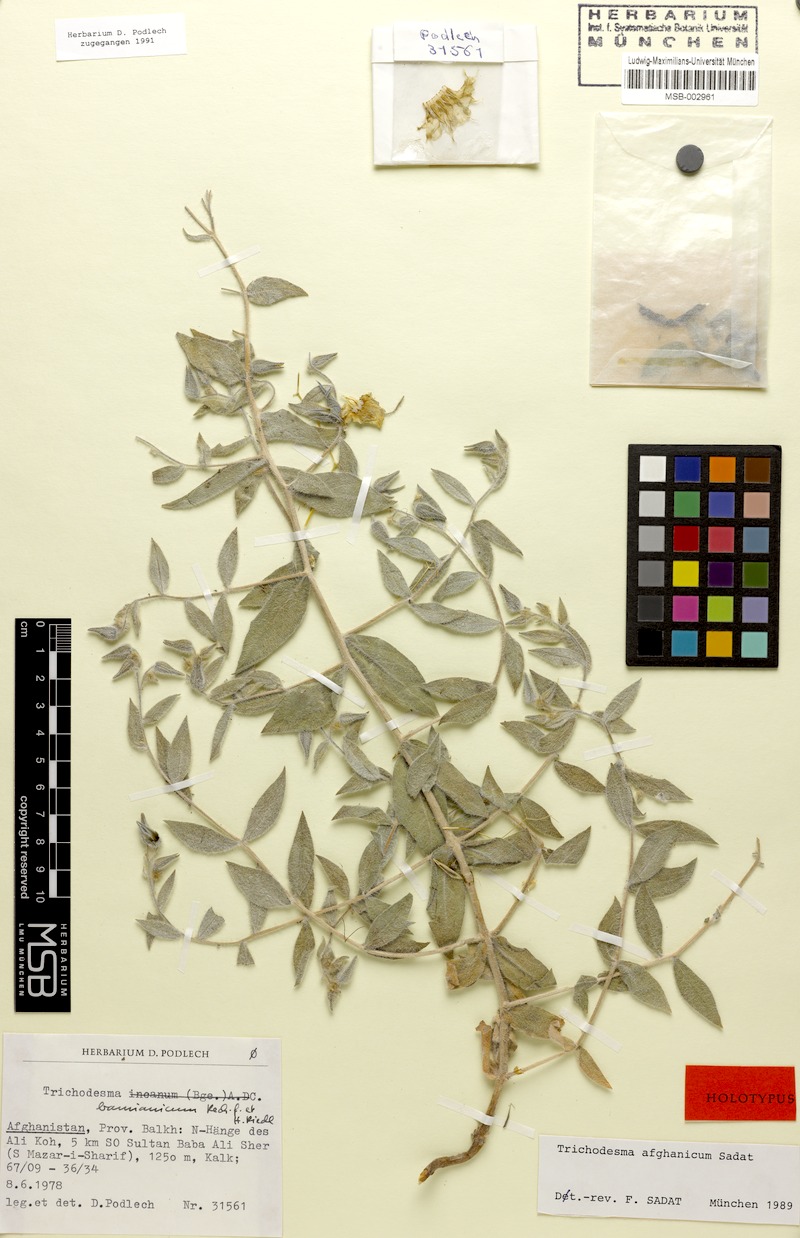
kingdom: Plantae
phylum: Tracheophyta
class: Magnoliopsida
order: Boraginales
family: Boraginaceae
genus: Trichodesma
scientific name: Trichodesma afghanicum
